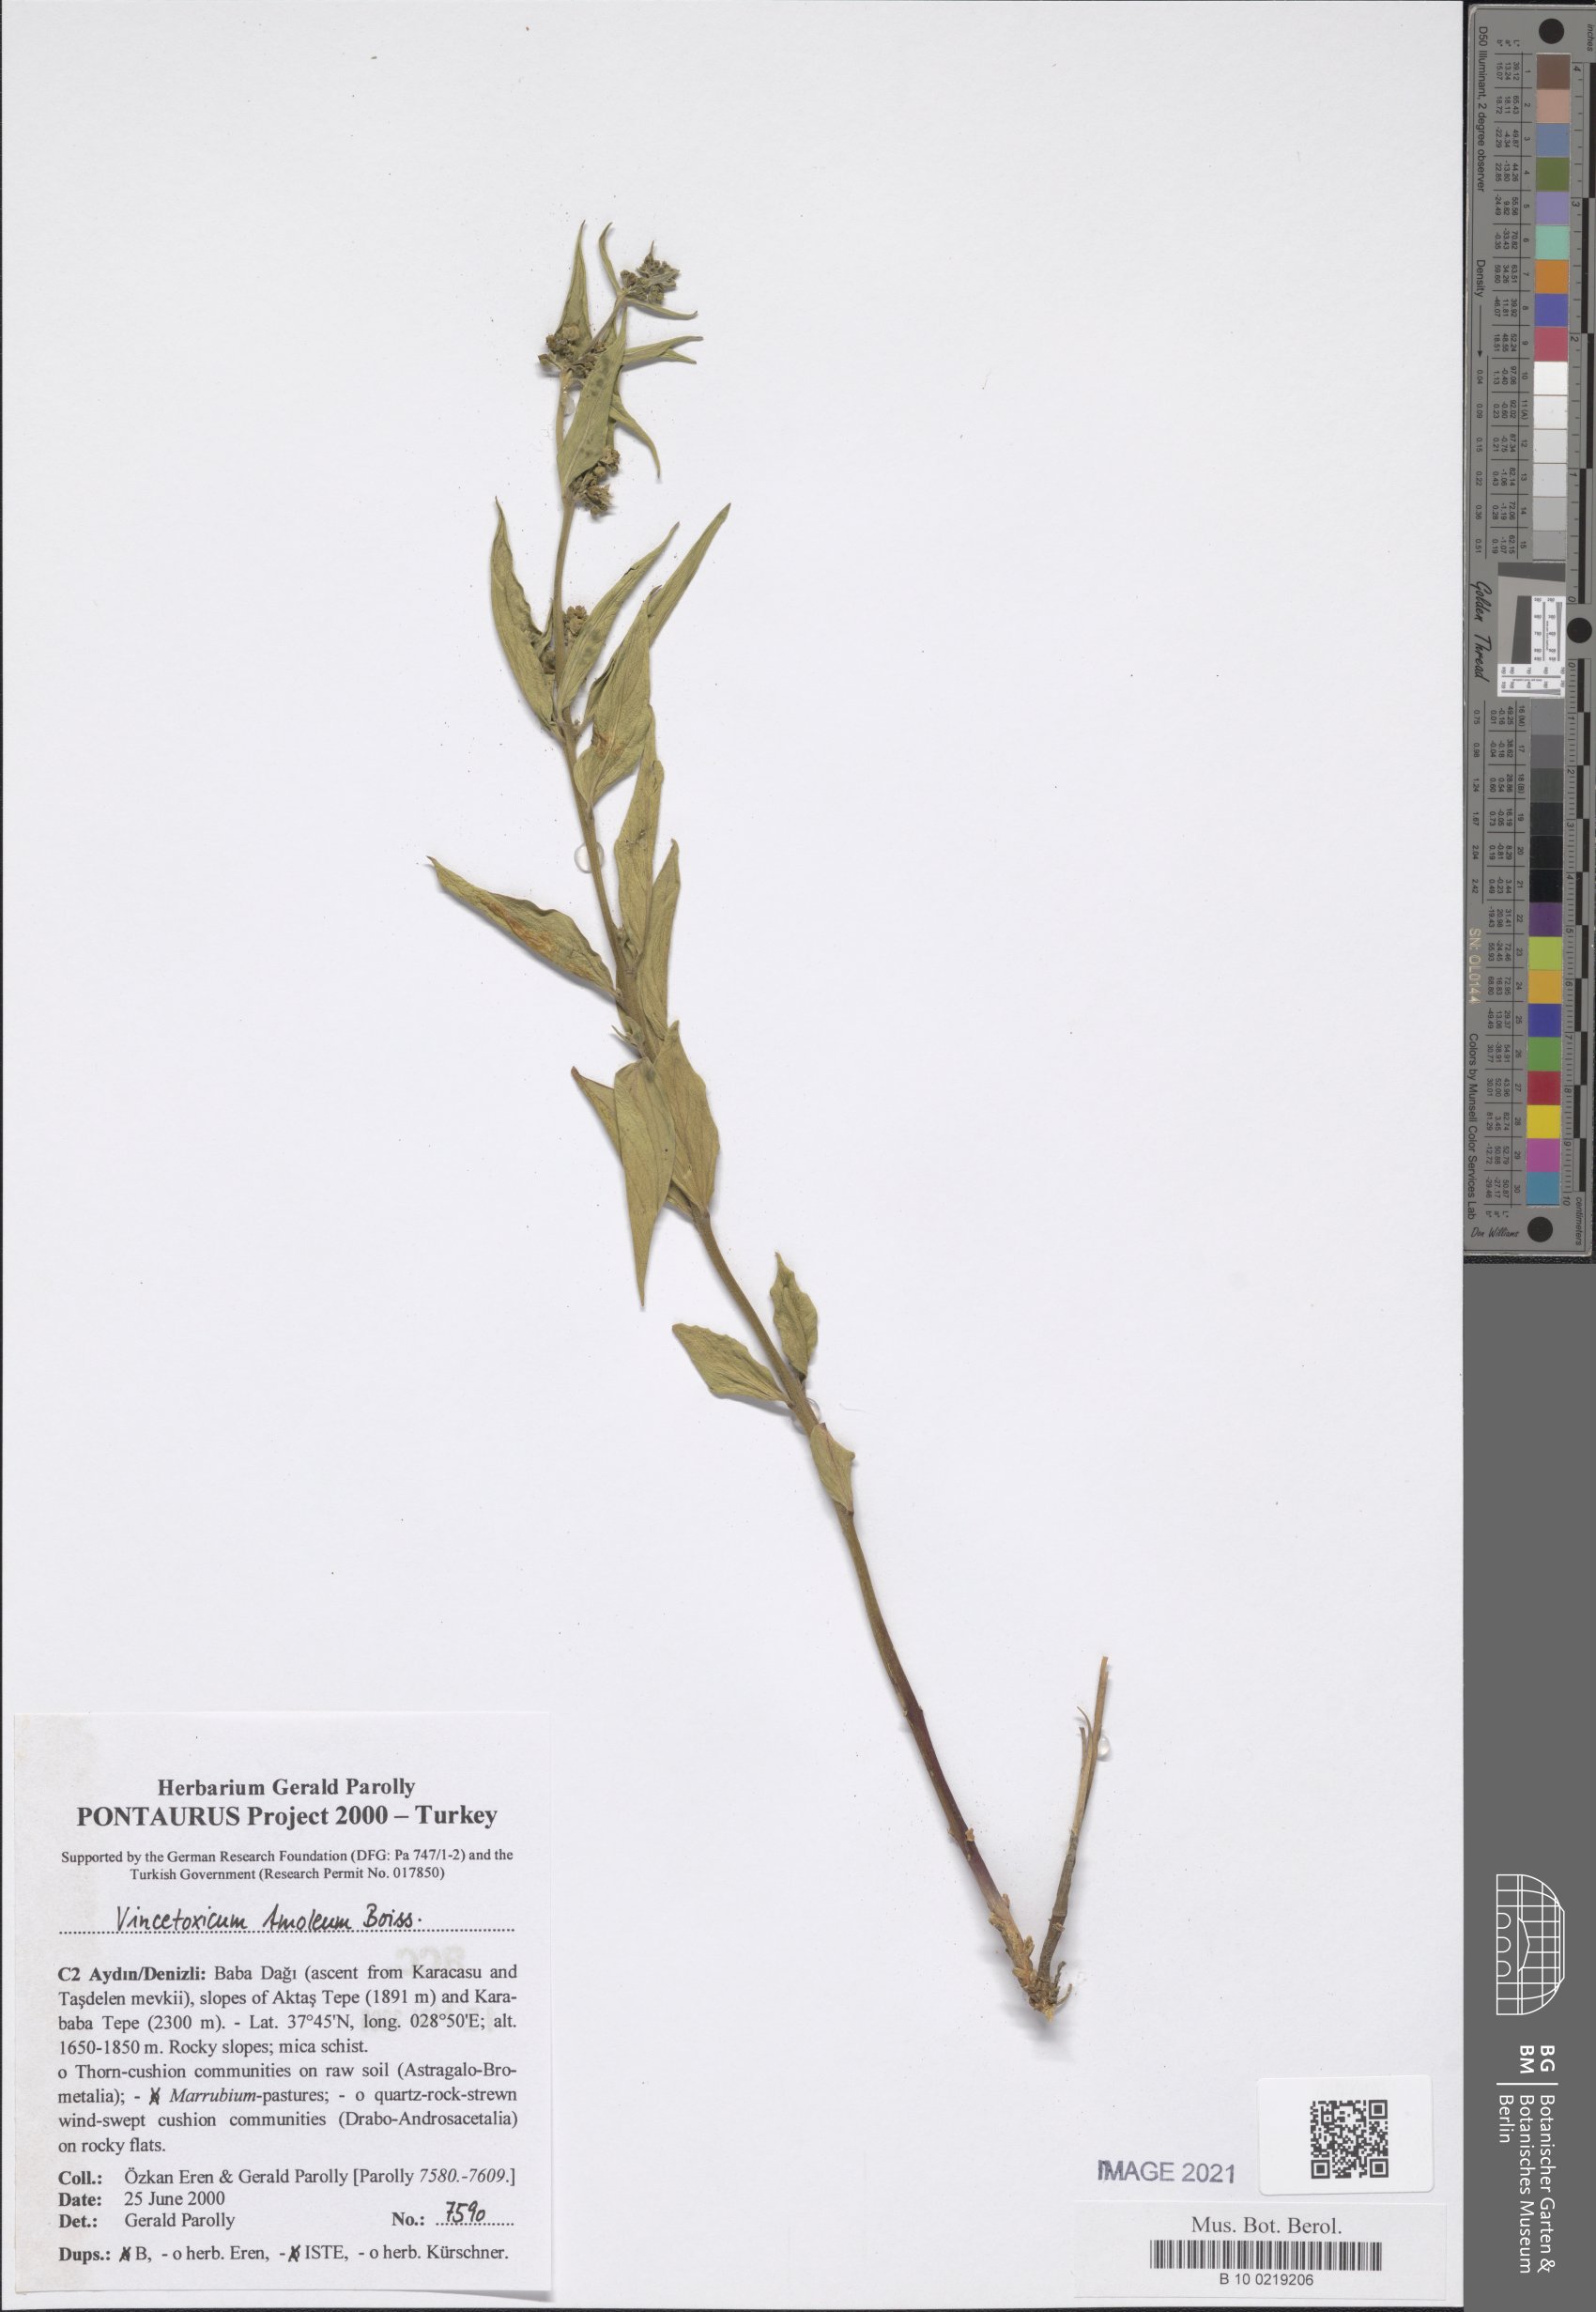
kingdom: Plantae
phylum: Tracheophyta
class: Magnoliopsida
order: Gentianales
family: Apocynaceae
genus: Vincetoxicum
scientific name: Vincetoxicum tmoleum
